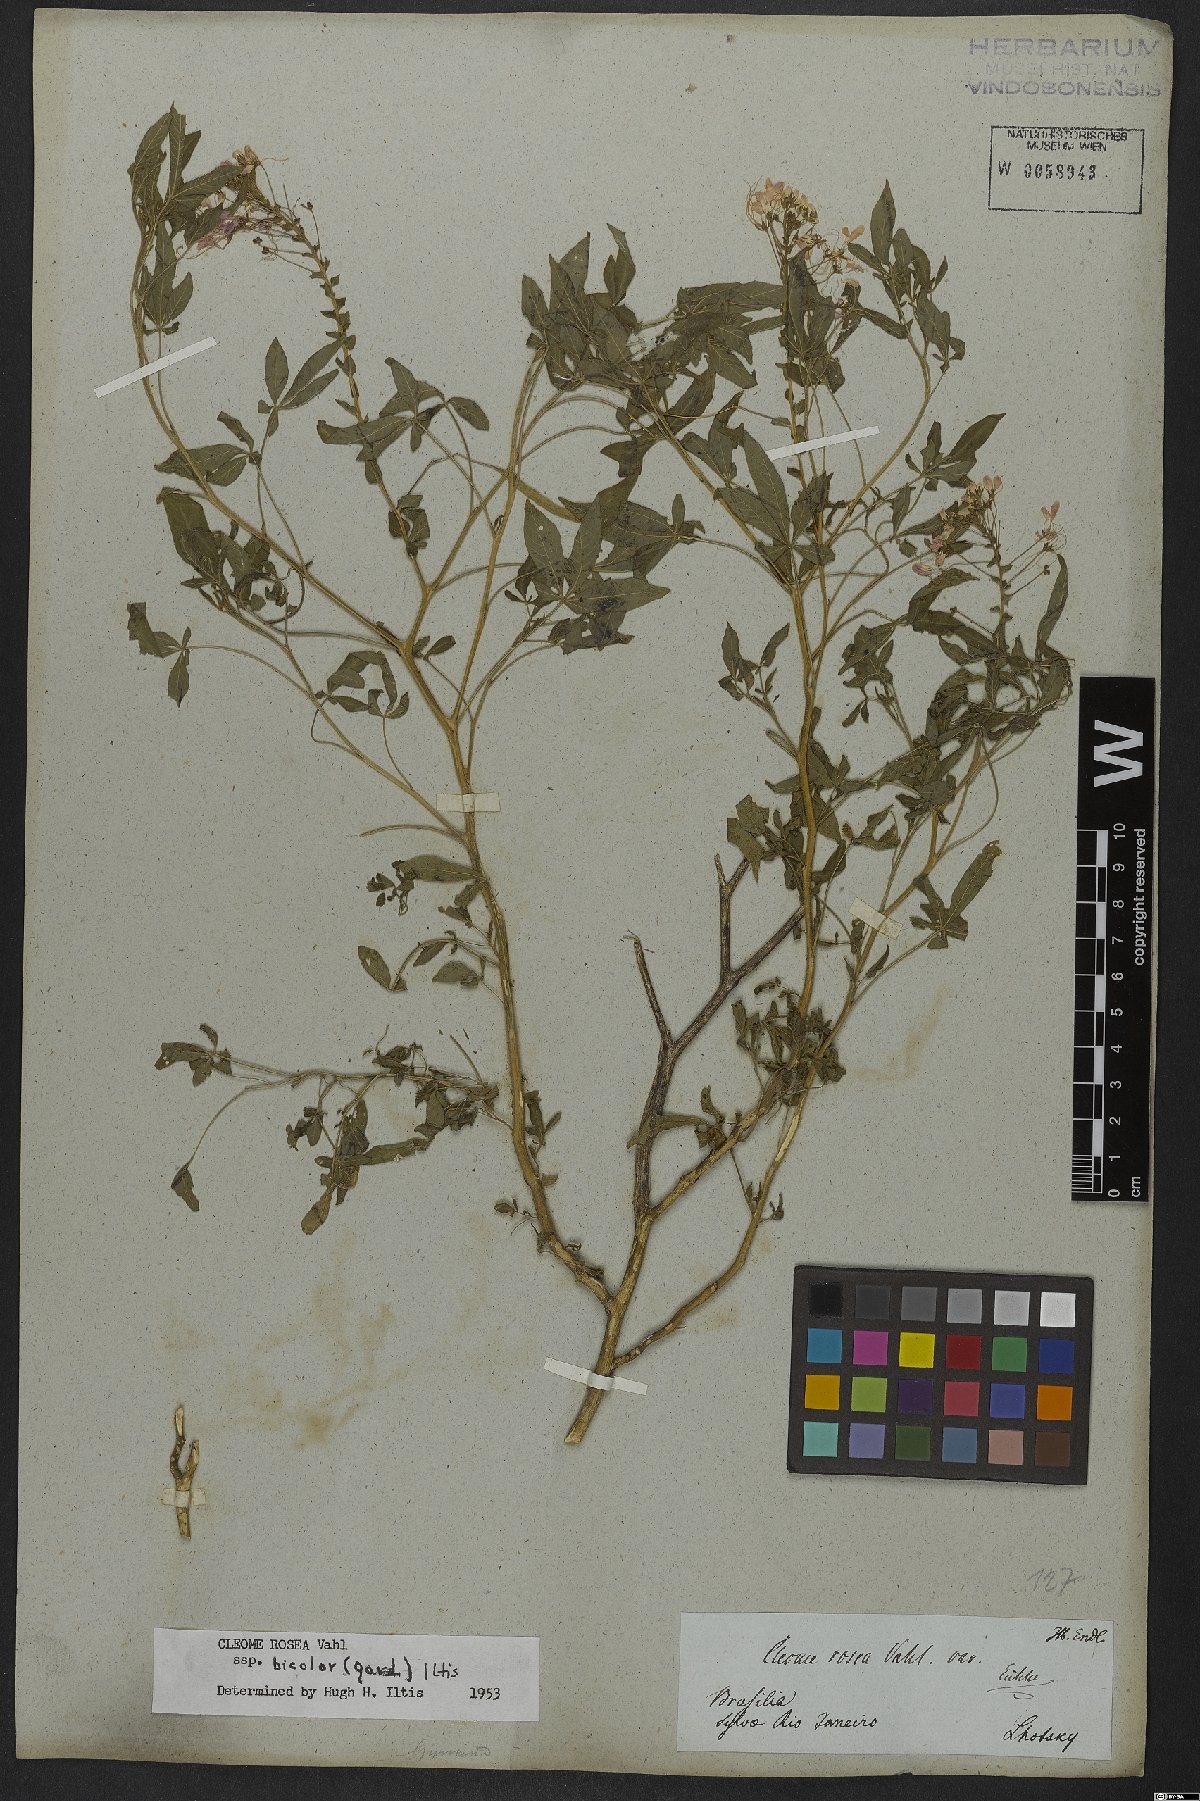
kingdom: Plantae
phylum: Tracheophyta
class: Magnoliopsida
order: Brassicales
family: Cleomaceae
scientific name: Cleomaceae
